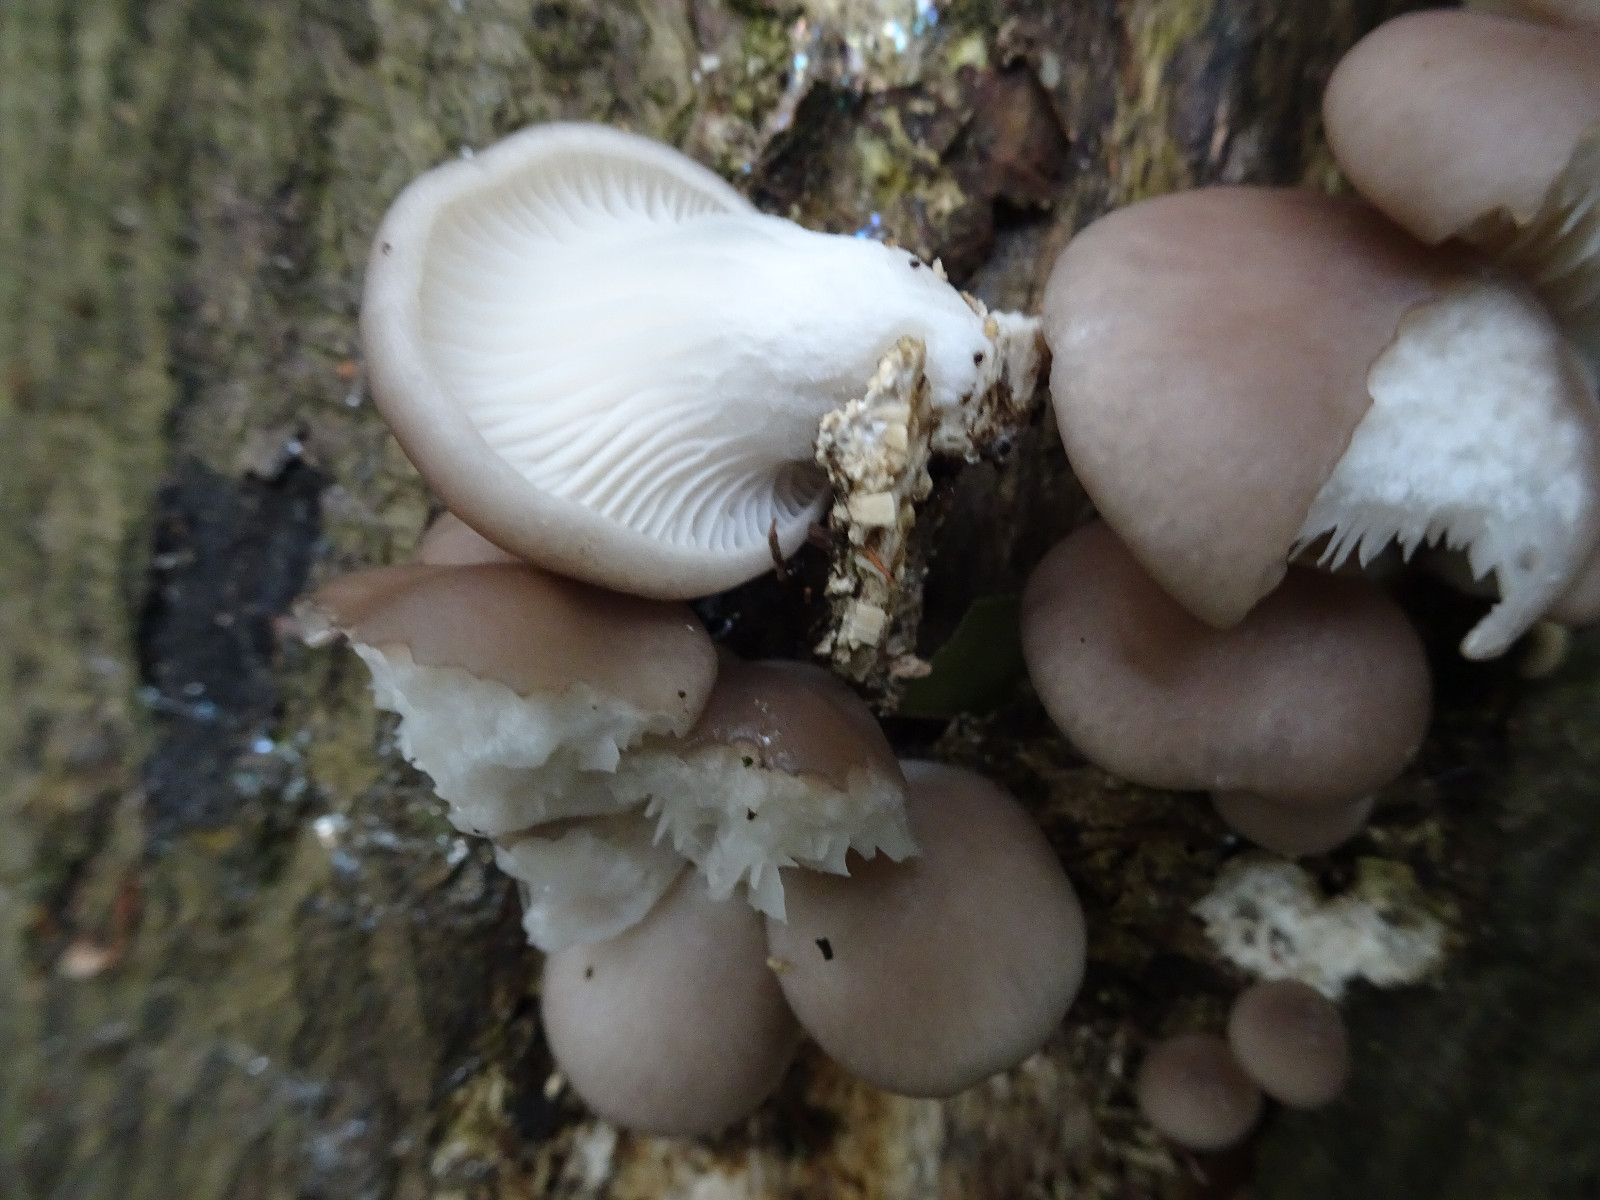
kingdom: Fungi
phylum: Basidiomycota
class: Agaricomycetes
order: Agaricales
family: Pleurotaceae
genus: Pleurotus
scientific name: Pleurotus ostreatus
